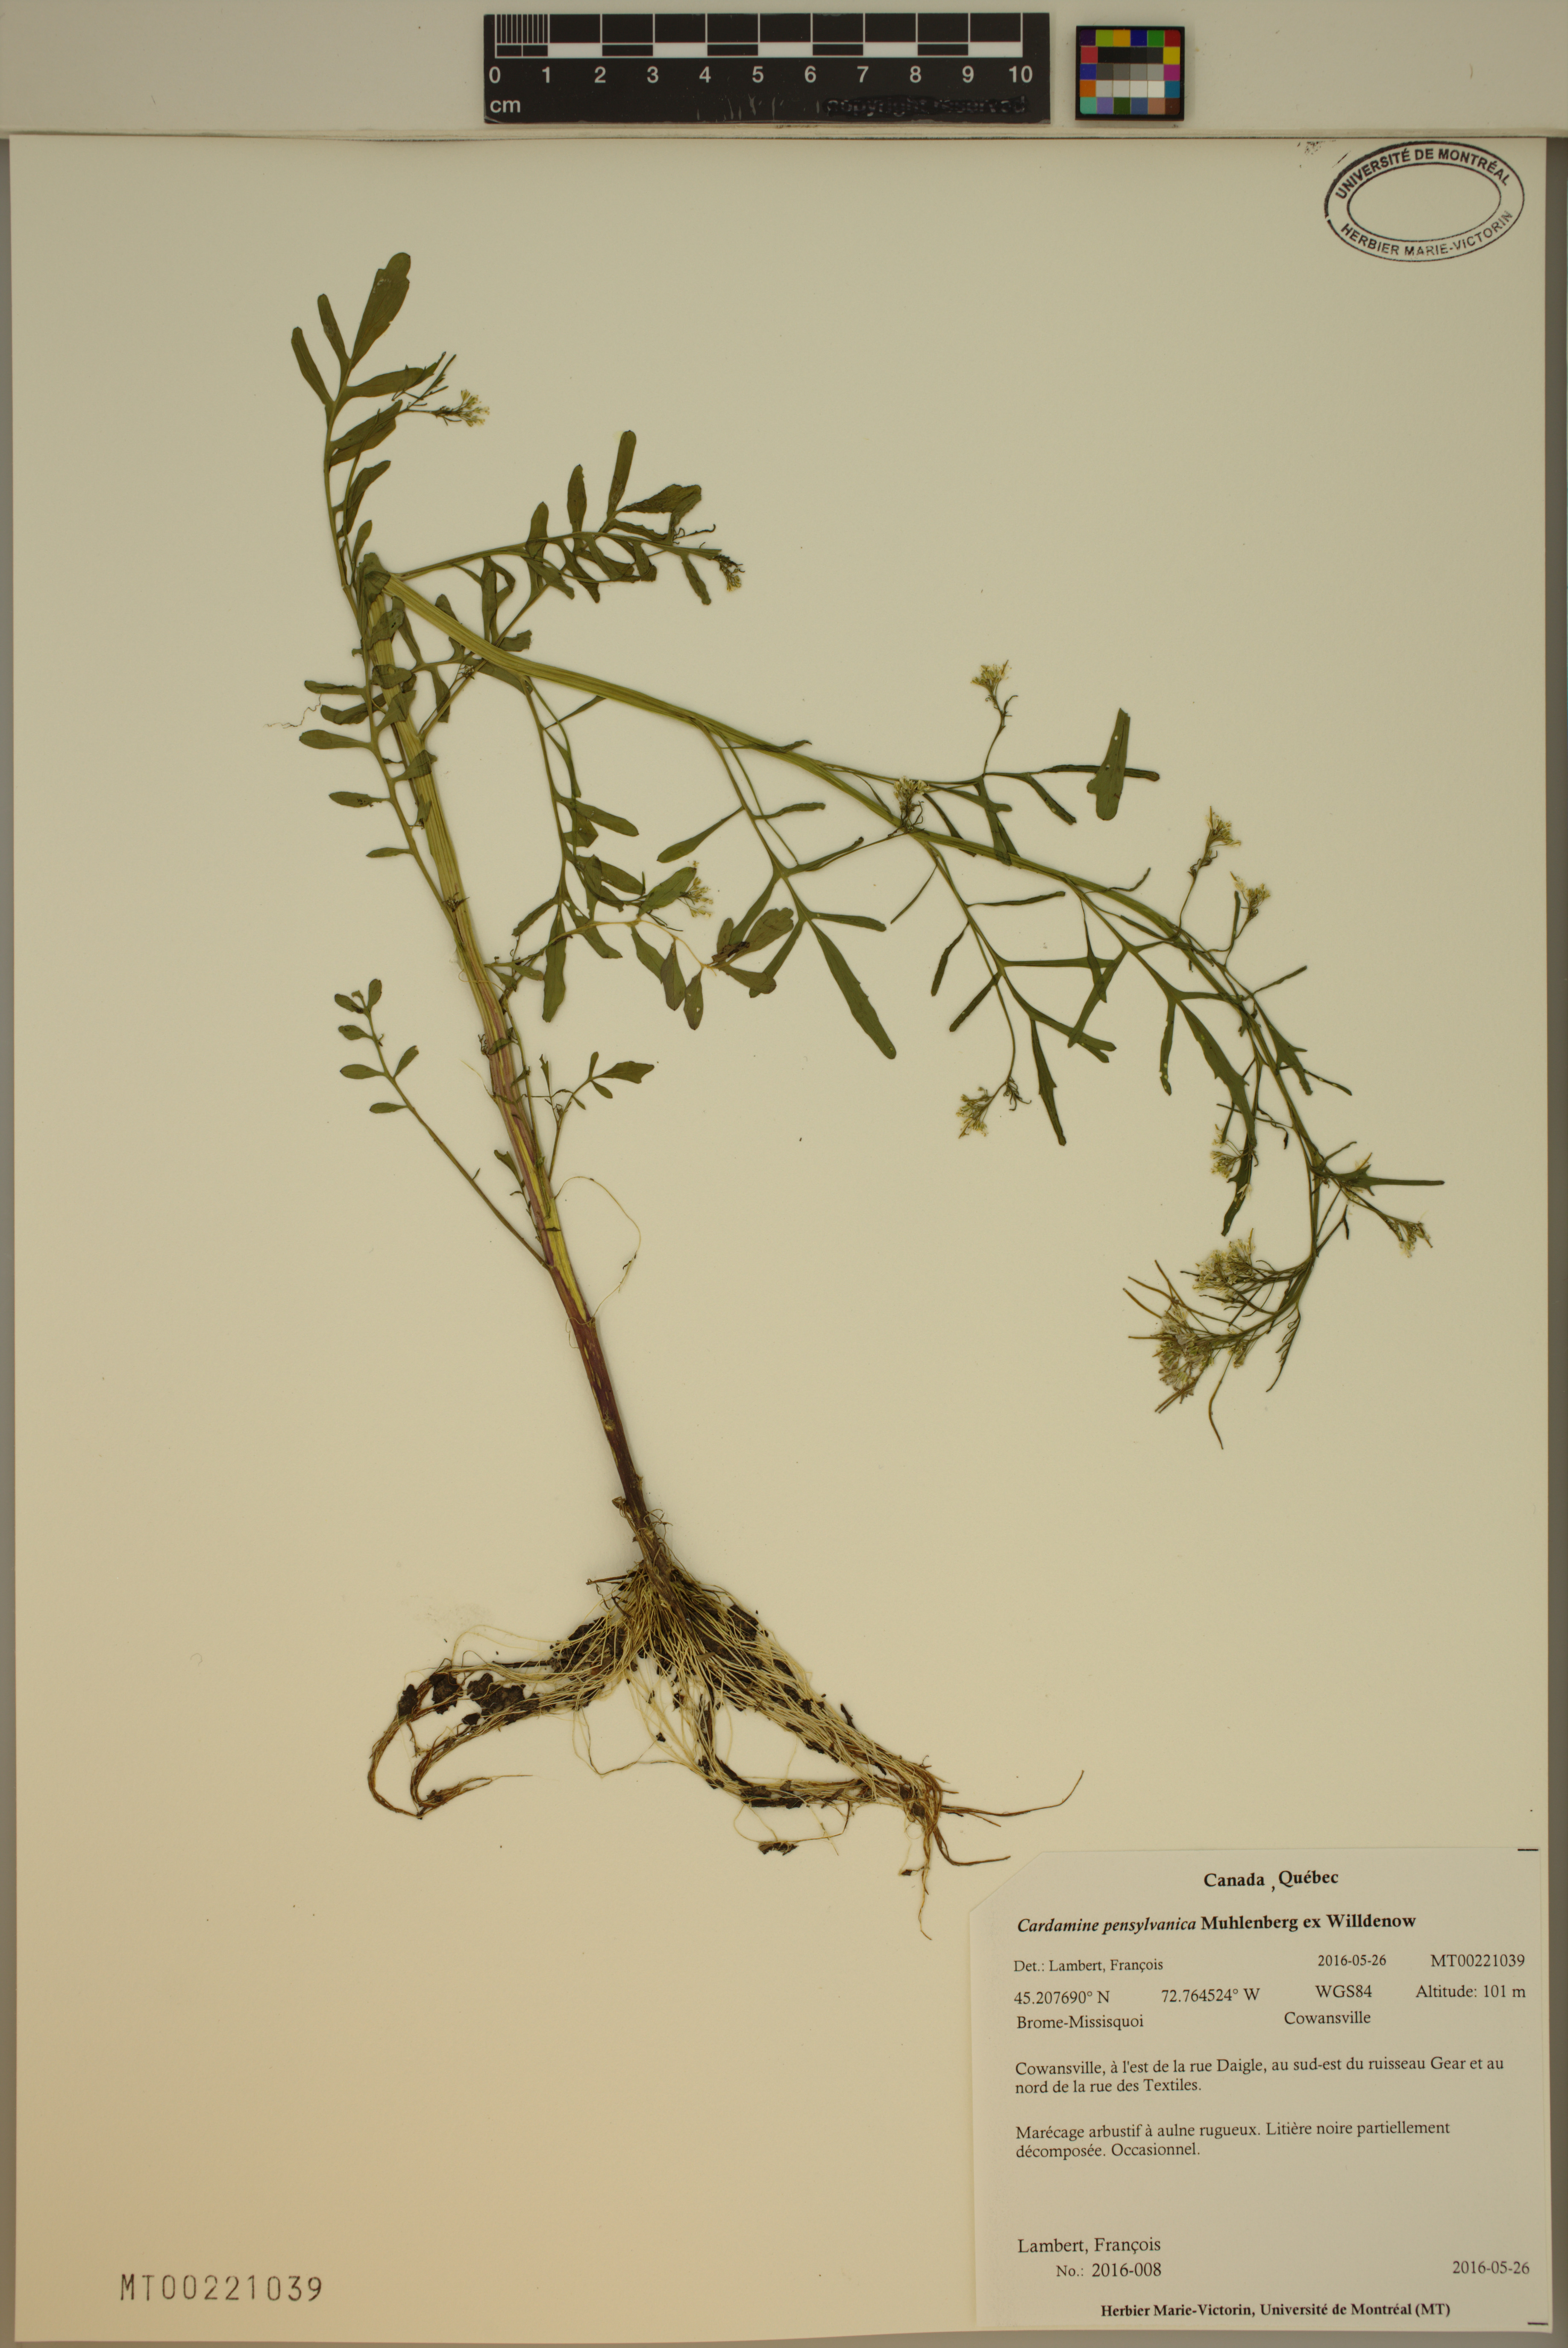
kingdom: Plantae
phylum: Tracheophyta
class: Magnoliopsida
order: Brassicales
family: Brassicaceae
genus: Cardamine
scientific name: Cardamine pensylvanica
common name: Pennsylvania bittercress
